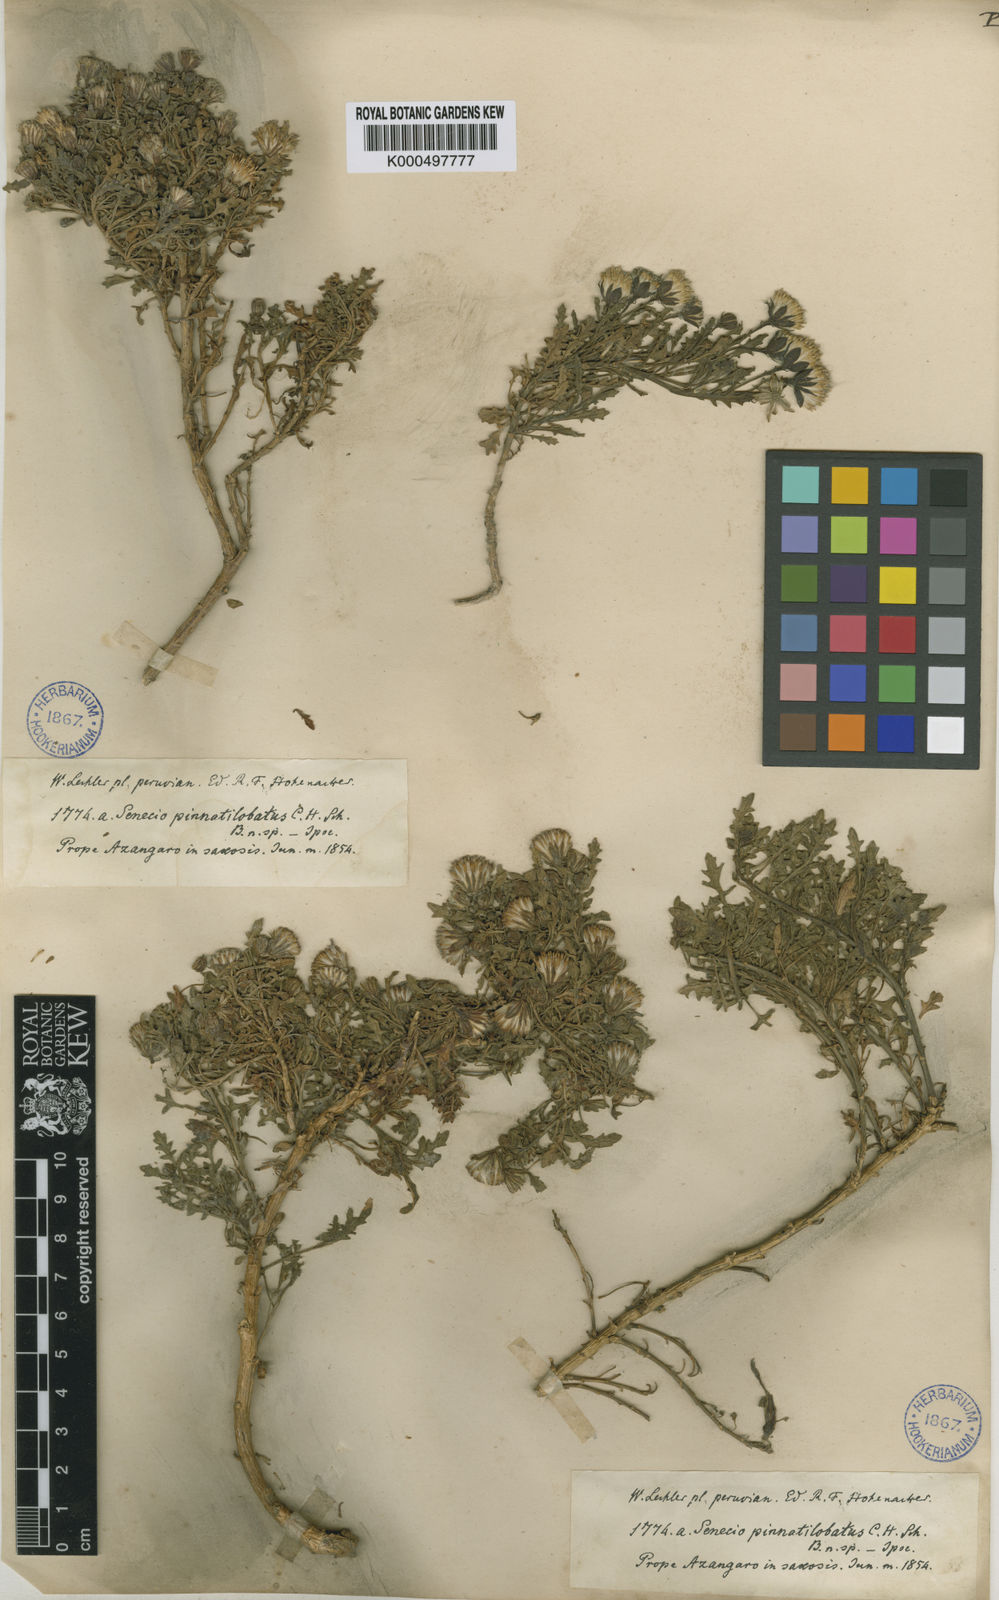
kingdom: Plantae
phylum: Tracheophyta
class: Magnoliopsida
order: Asterales
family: Asteraceae
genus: Senecio
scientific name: Senecio pinnatilobatus
